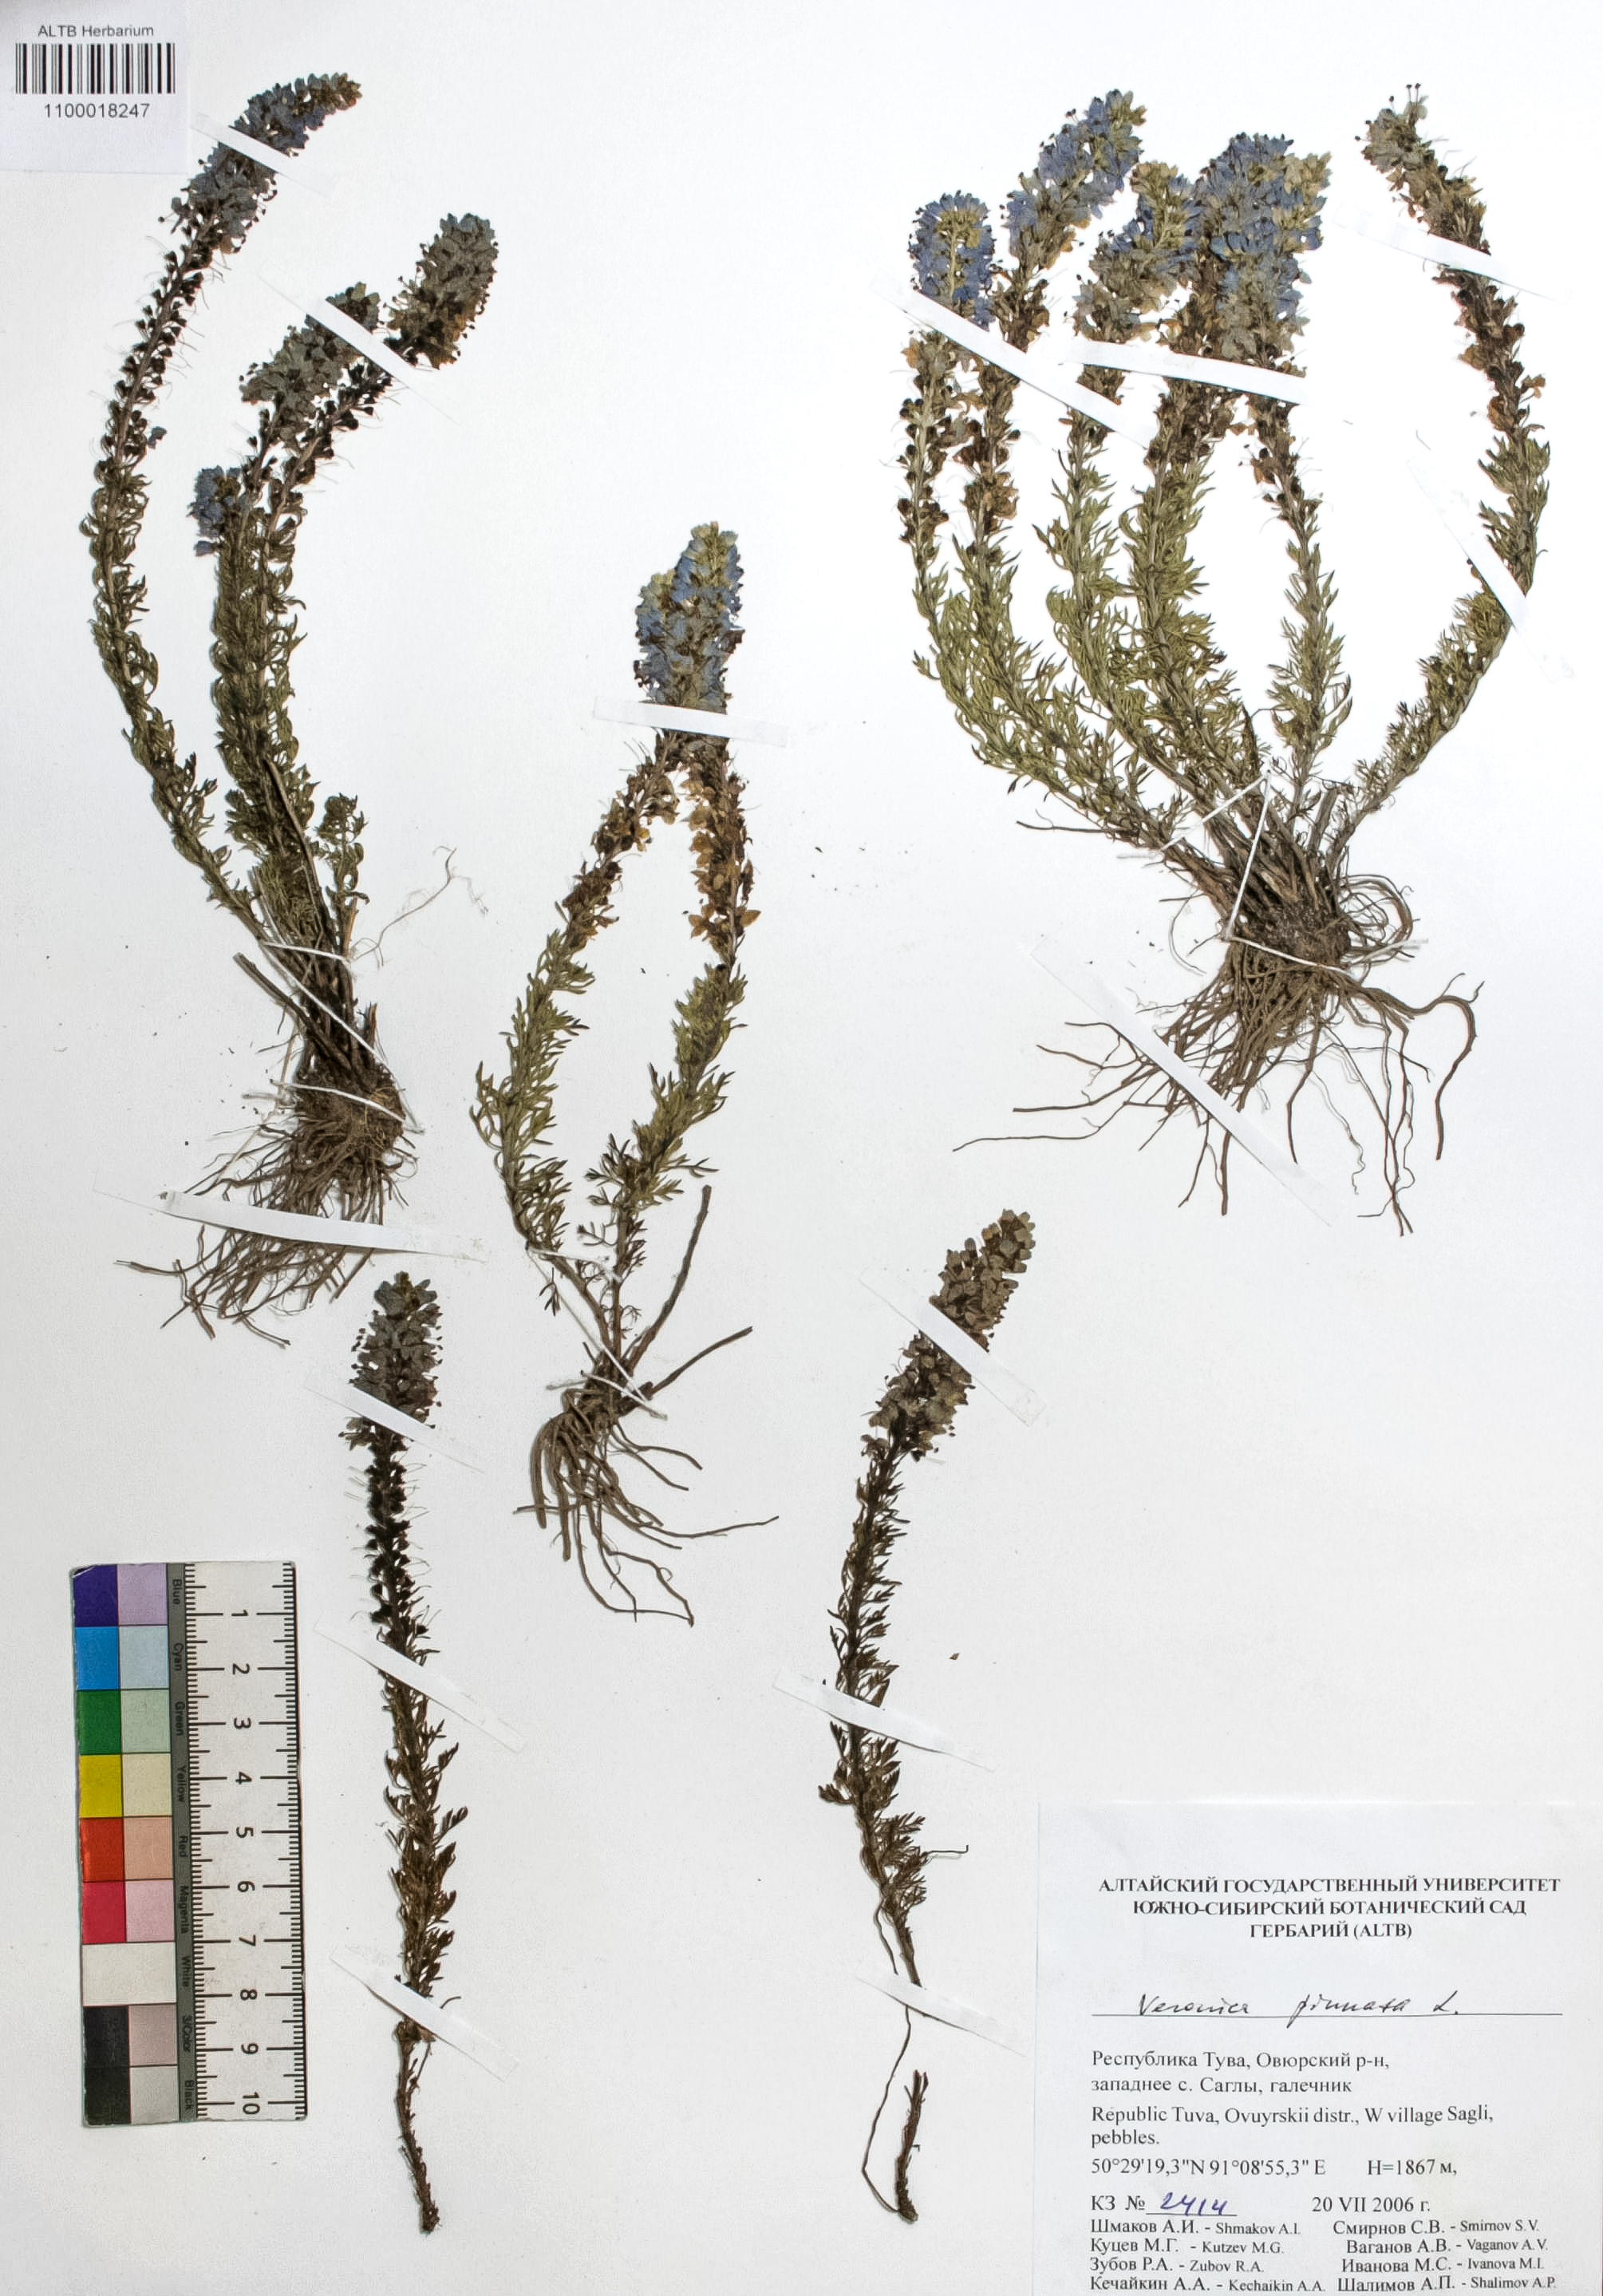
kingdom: Plantae
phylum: Tracheophyta
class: Magnoliopsida
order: Lamiales
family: Plantaginaceae
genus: Veronica
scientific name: Veronica pinnata
